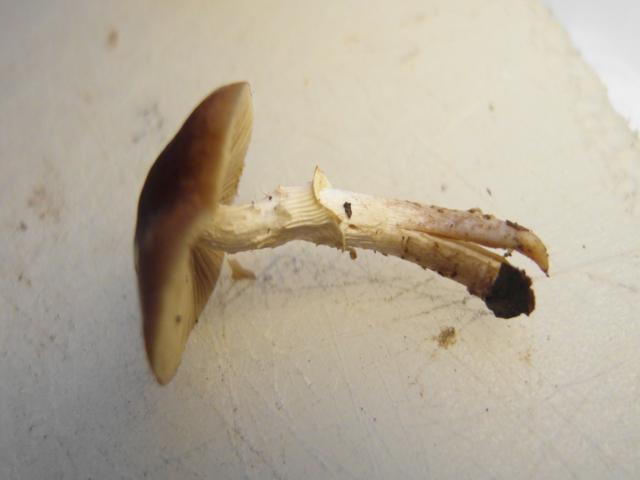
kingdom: Fungi
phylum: Basidiomycota
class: Agaricomycetes
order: Agaricales
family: Tubariaceae
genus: Cyclocybe
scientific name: Cyclocybe erebia
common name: mørk agerhat
